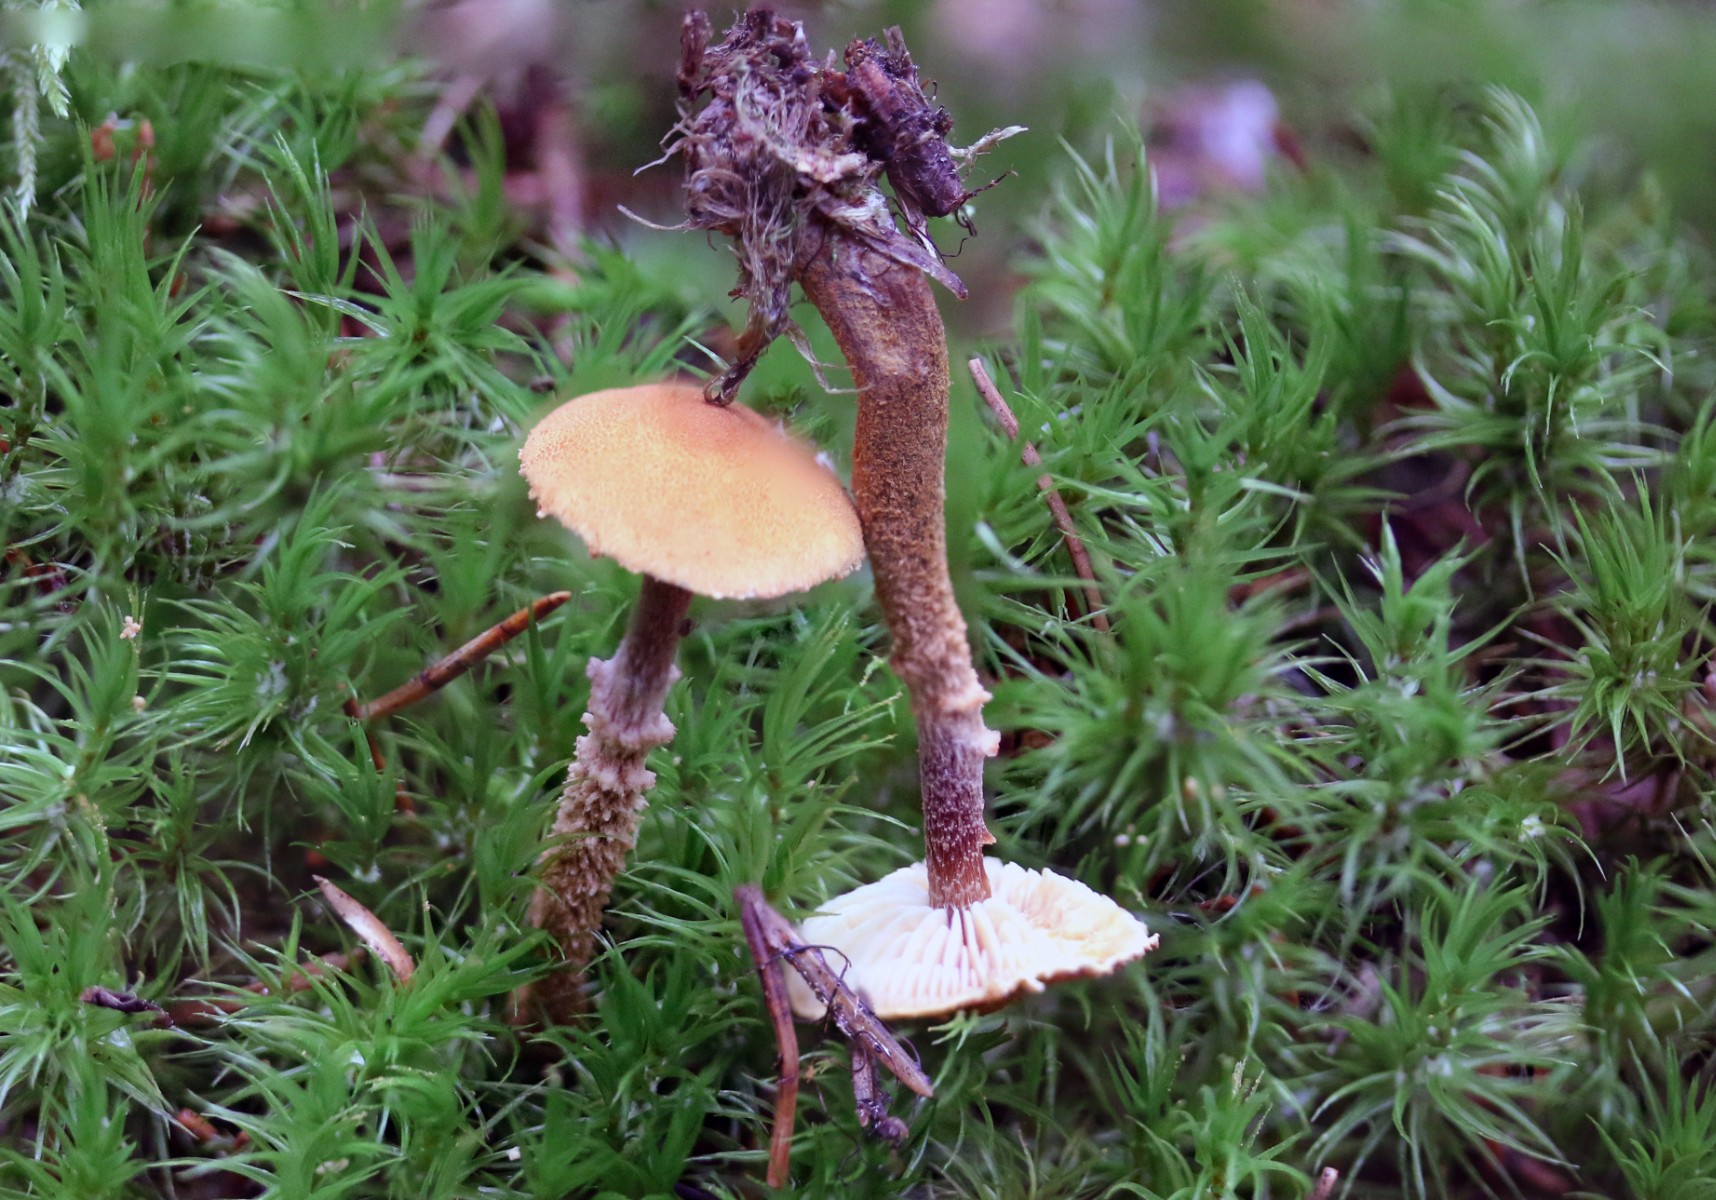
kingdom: Fungi
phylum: Basidiomycota
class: Agaricomycetes
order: Agaricales
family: Tricholomataceae
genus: Cystoderma
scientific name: Cystoderma jasonis
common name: gulkødet grynhat
